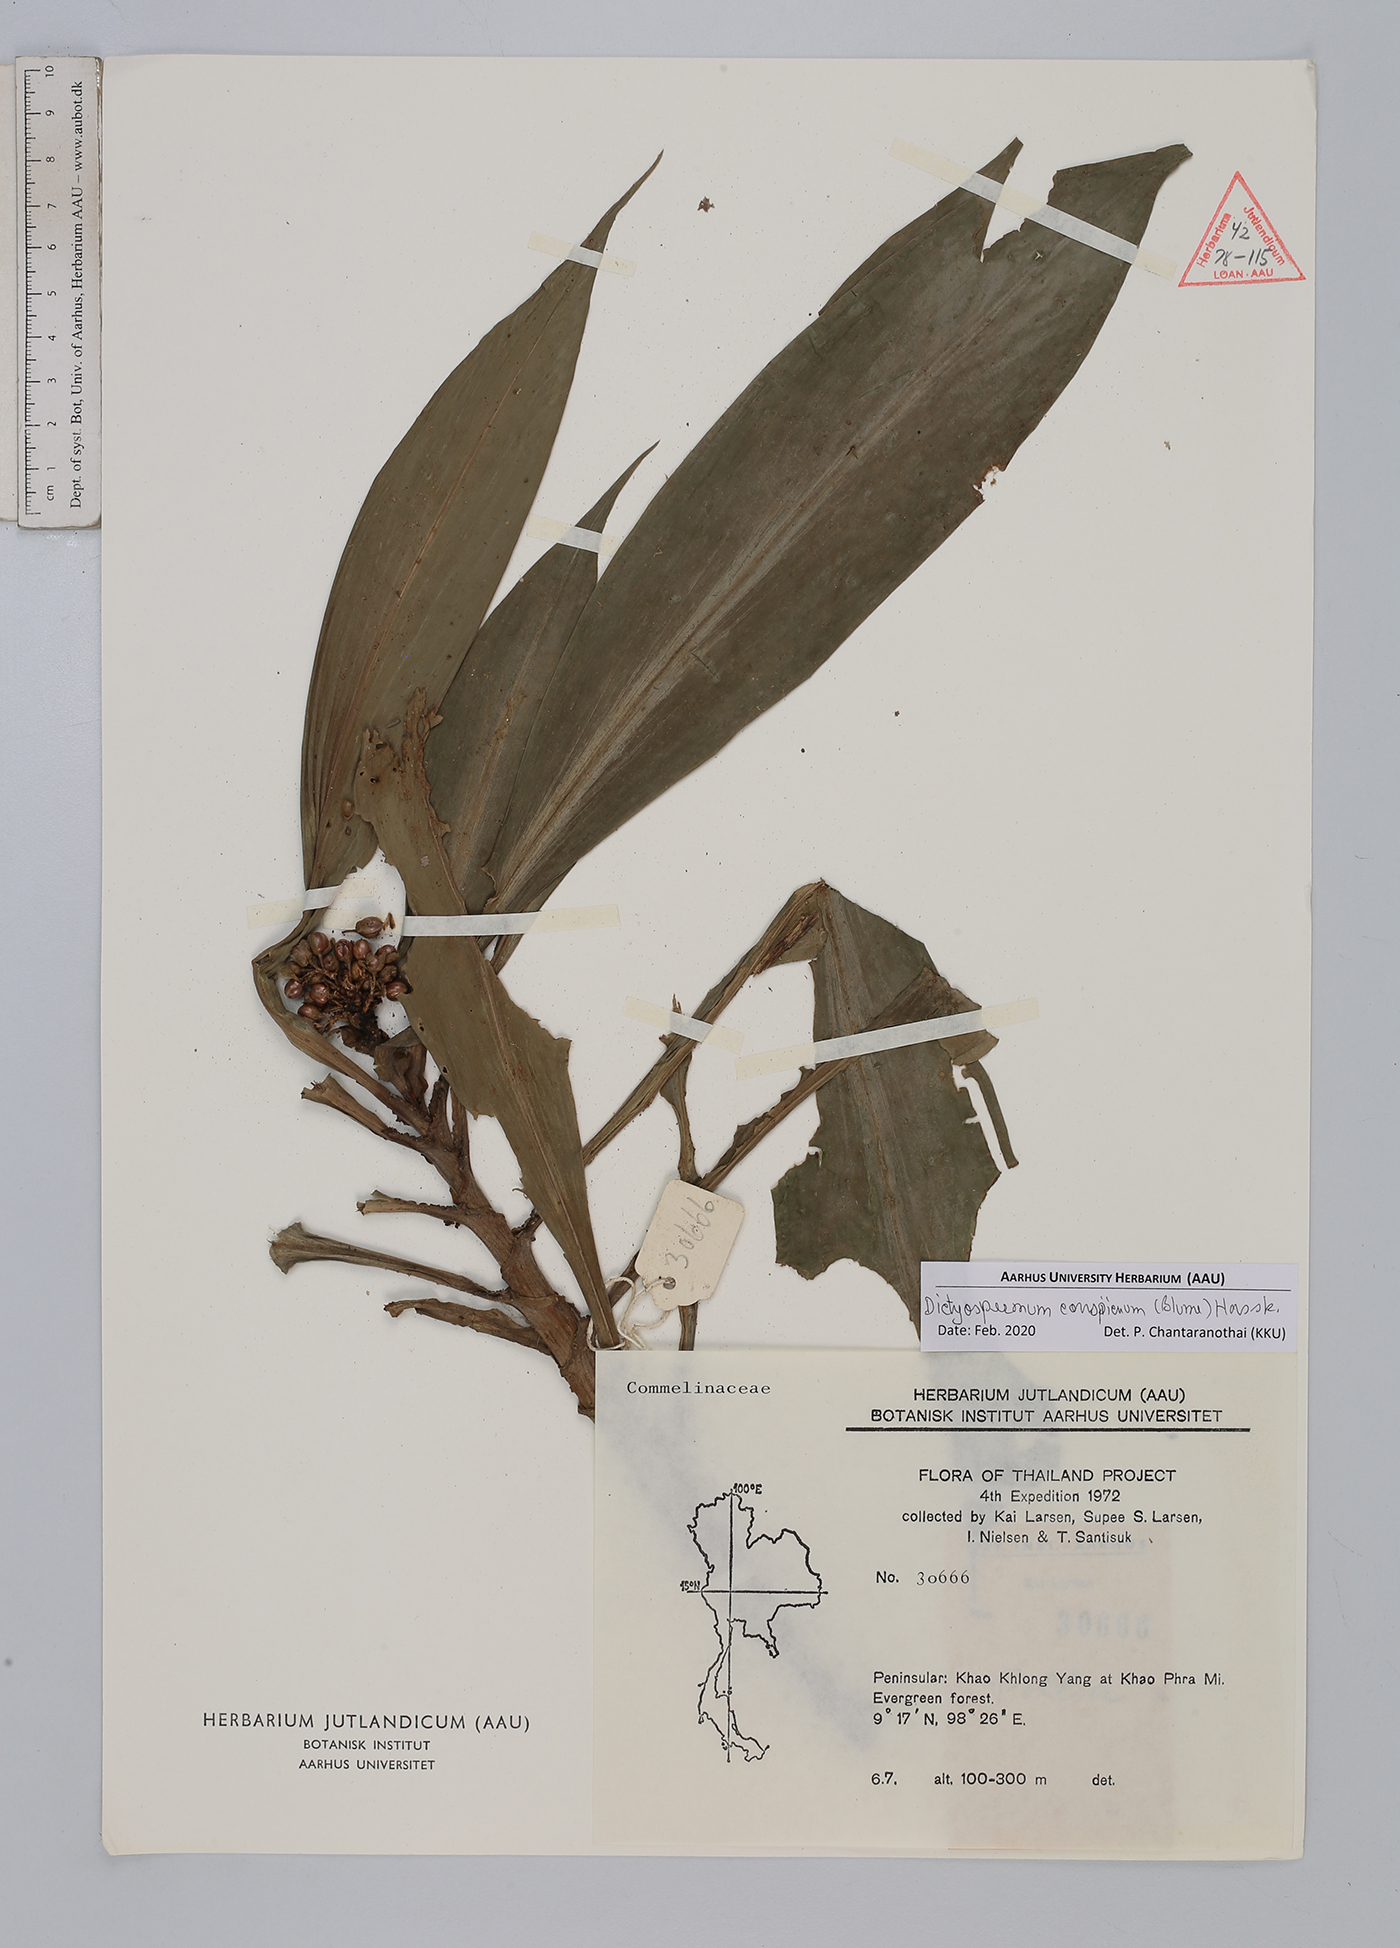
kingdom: Plantae
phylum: Tracheophyta
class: Liliopsida
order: Commelinales
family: Commelinaceae
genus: Dictyospermum
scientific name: Dictyospermum conspicuum
